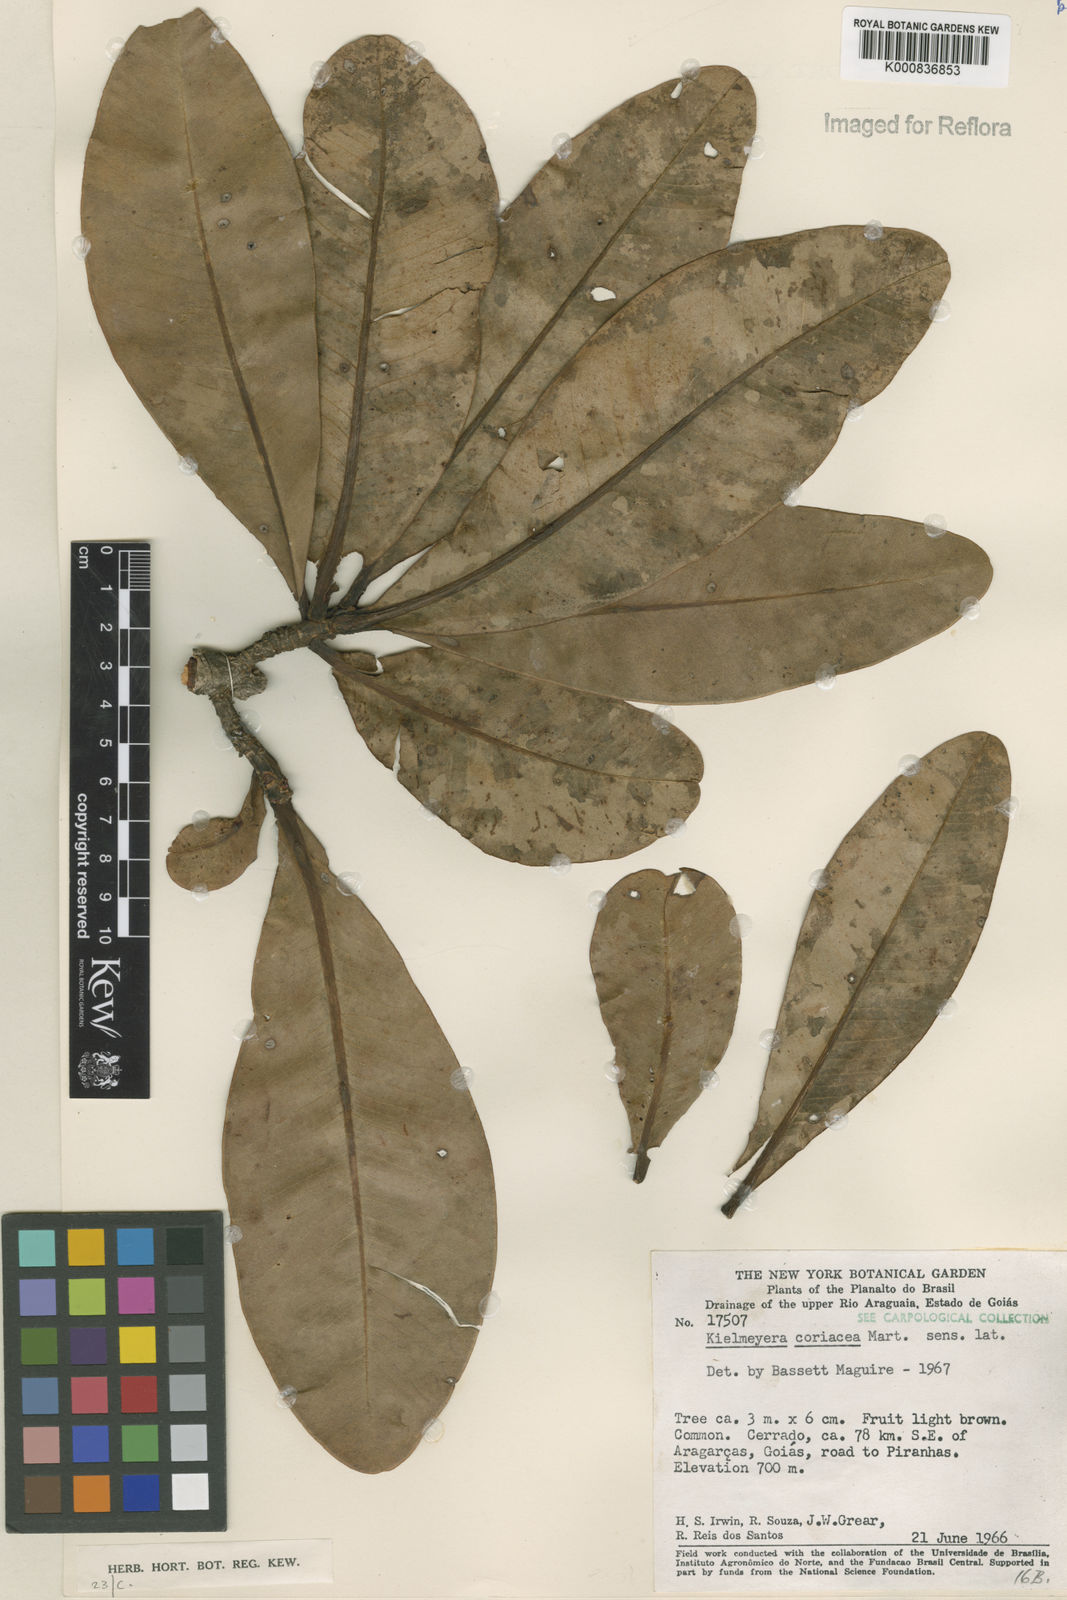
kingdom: Plantae
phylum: Tracheophyta
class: Magnoliopsida
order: Malpighiales
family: Calophyllaceae
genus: Kielmeyera
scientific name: Kielmeyera coriacea
